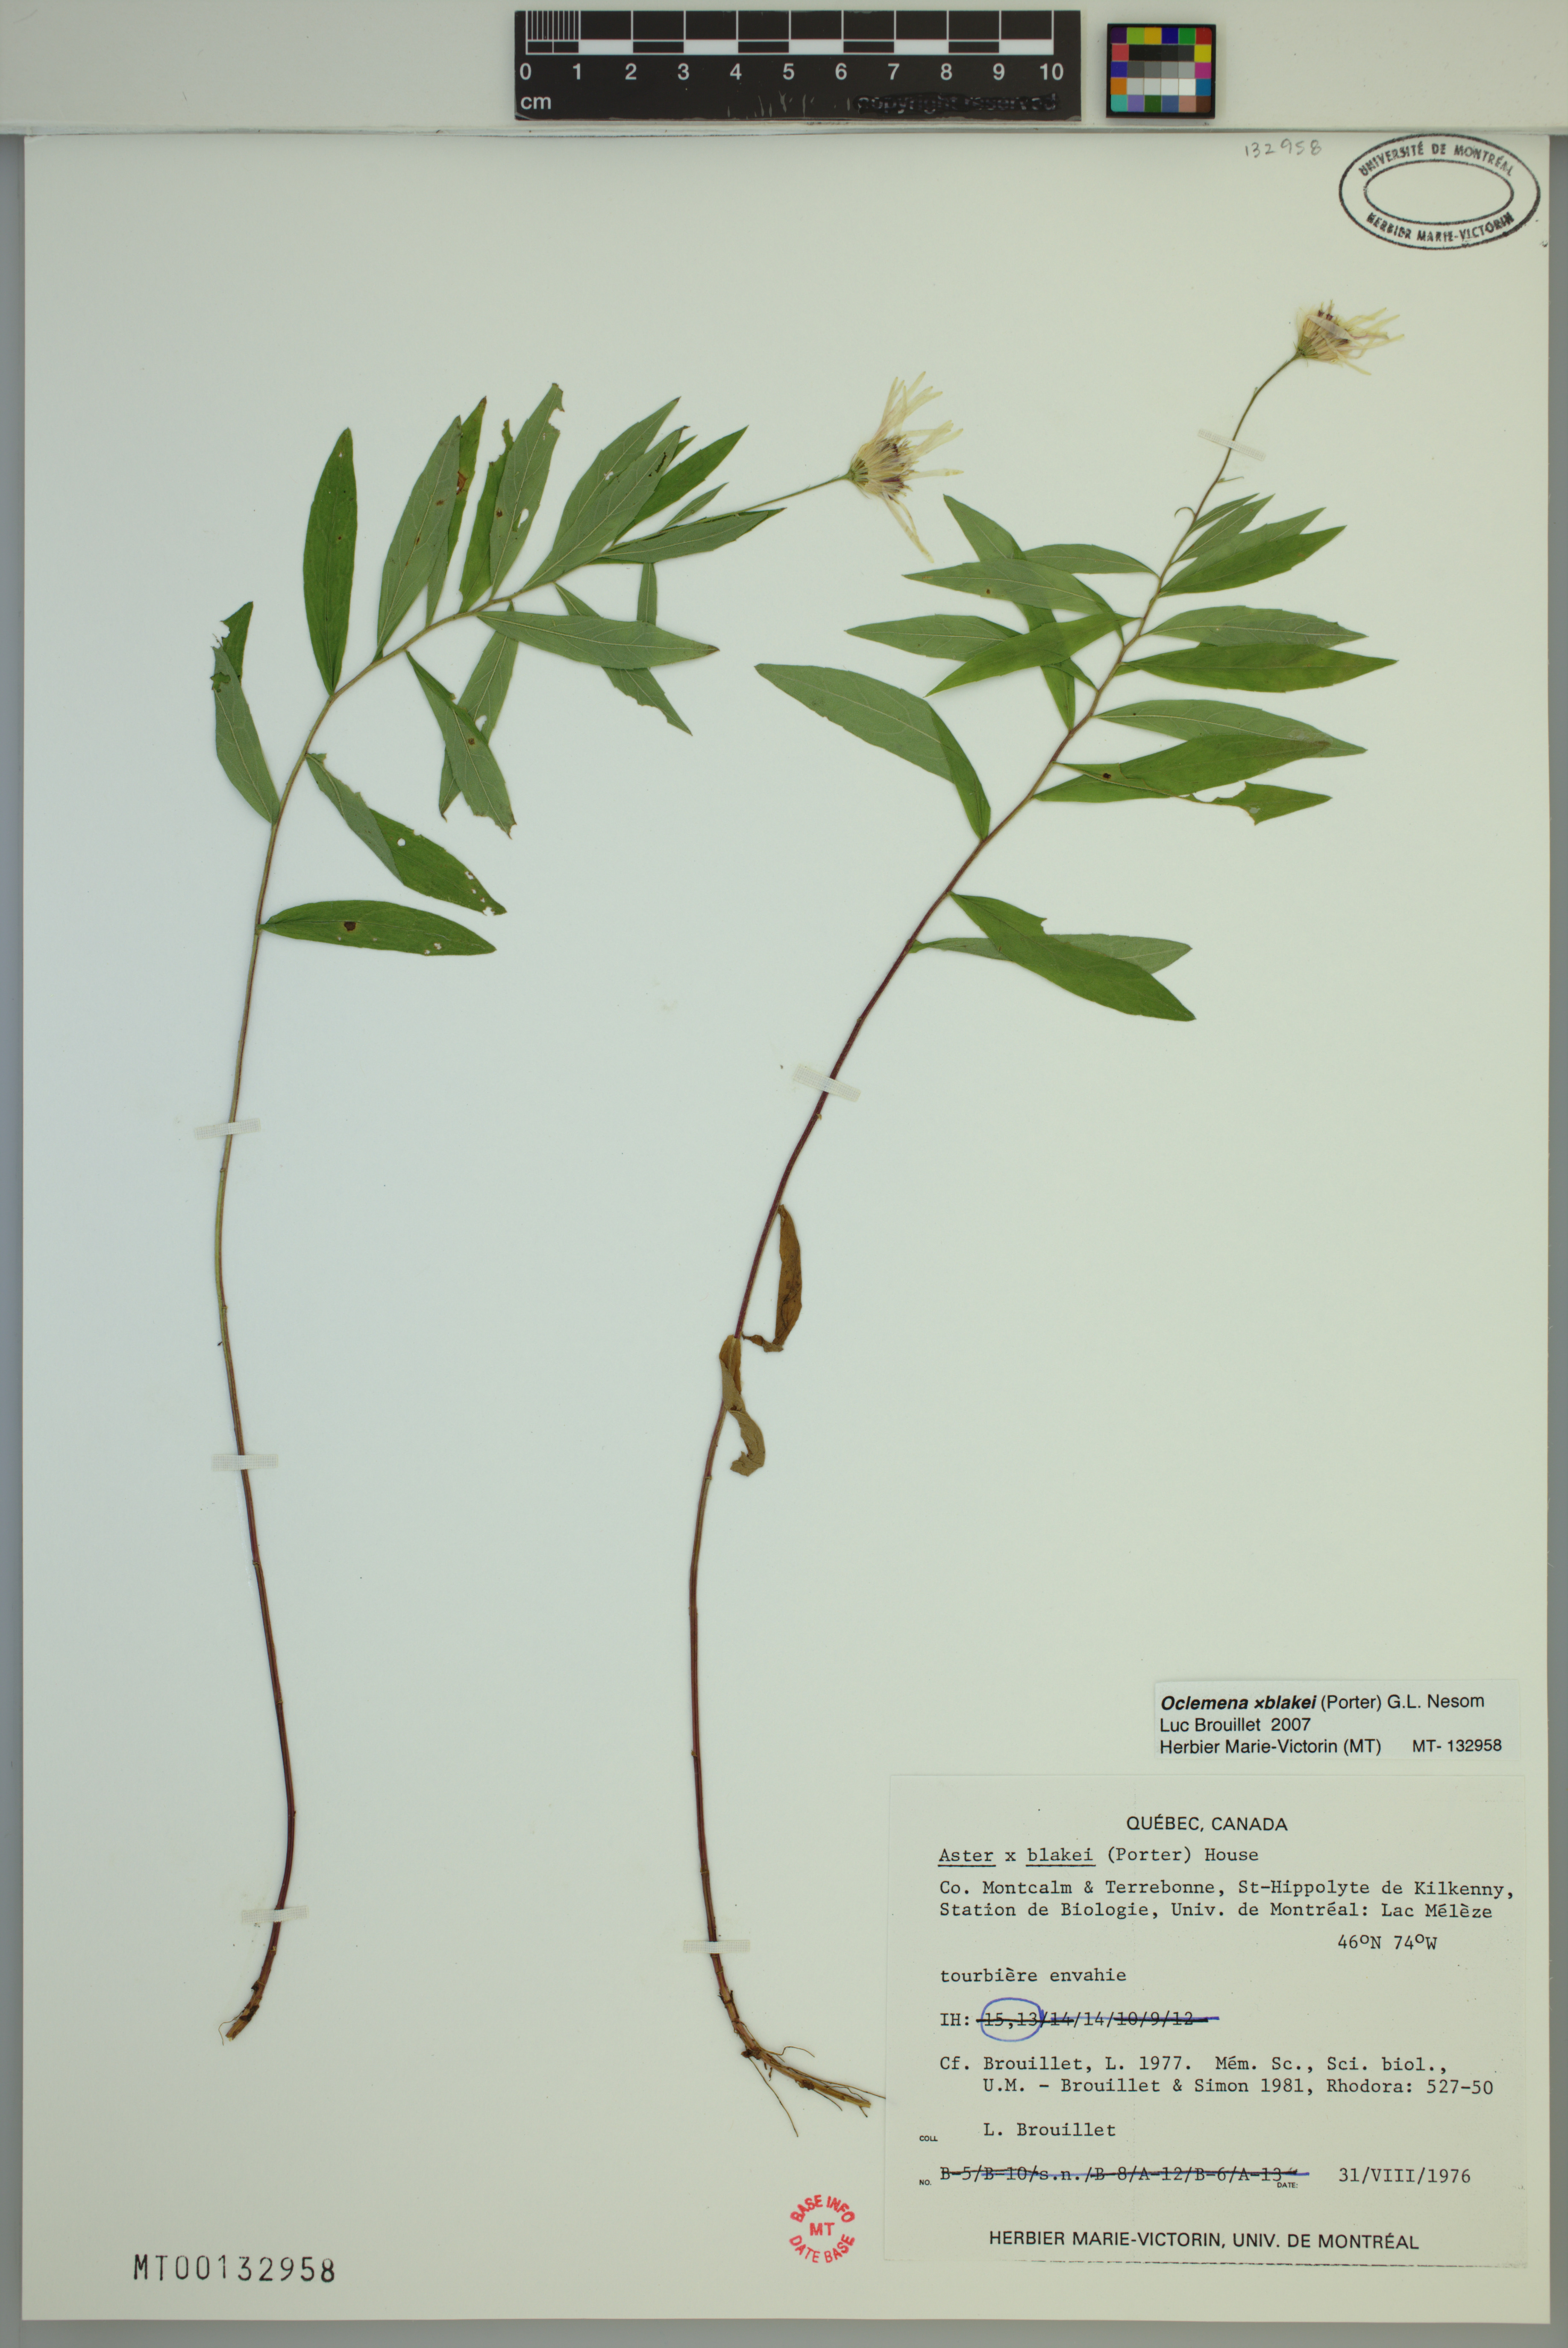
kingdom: Plantae
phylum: Tracheophyta
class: Magnoliopsida
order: Asterales
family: Asteraceae
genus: Oclemena
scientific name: Oclemena blakei
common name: Blake's aster
